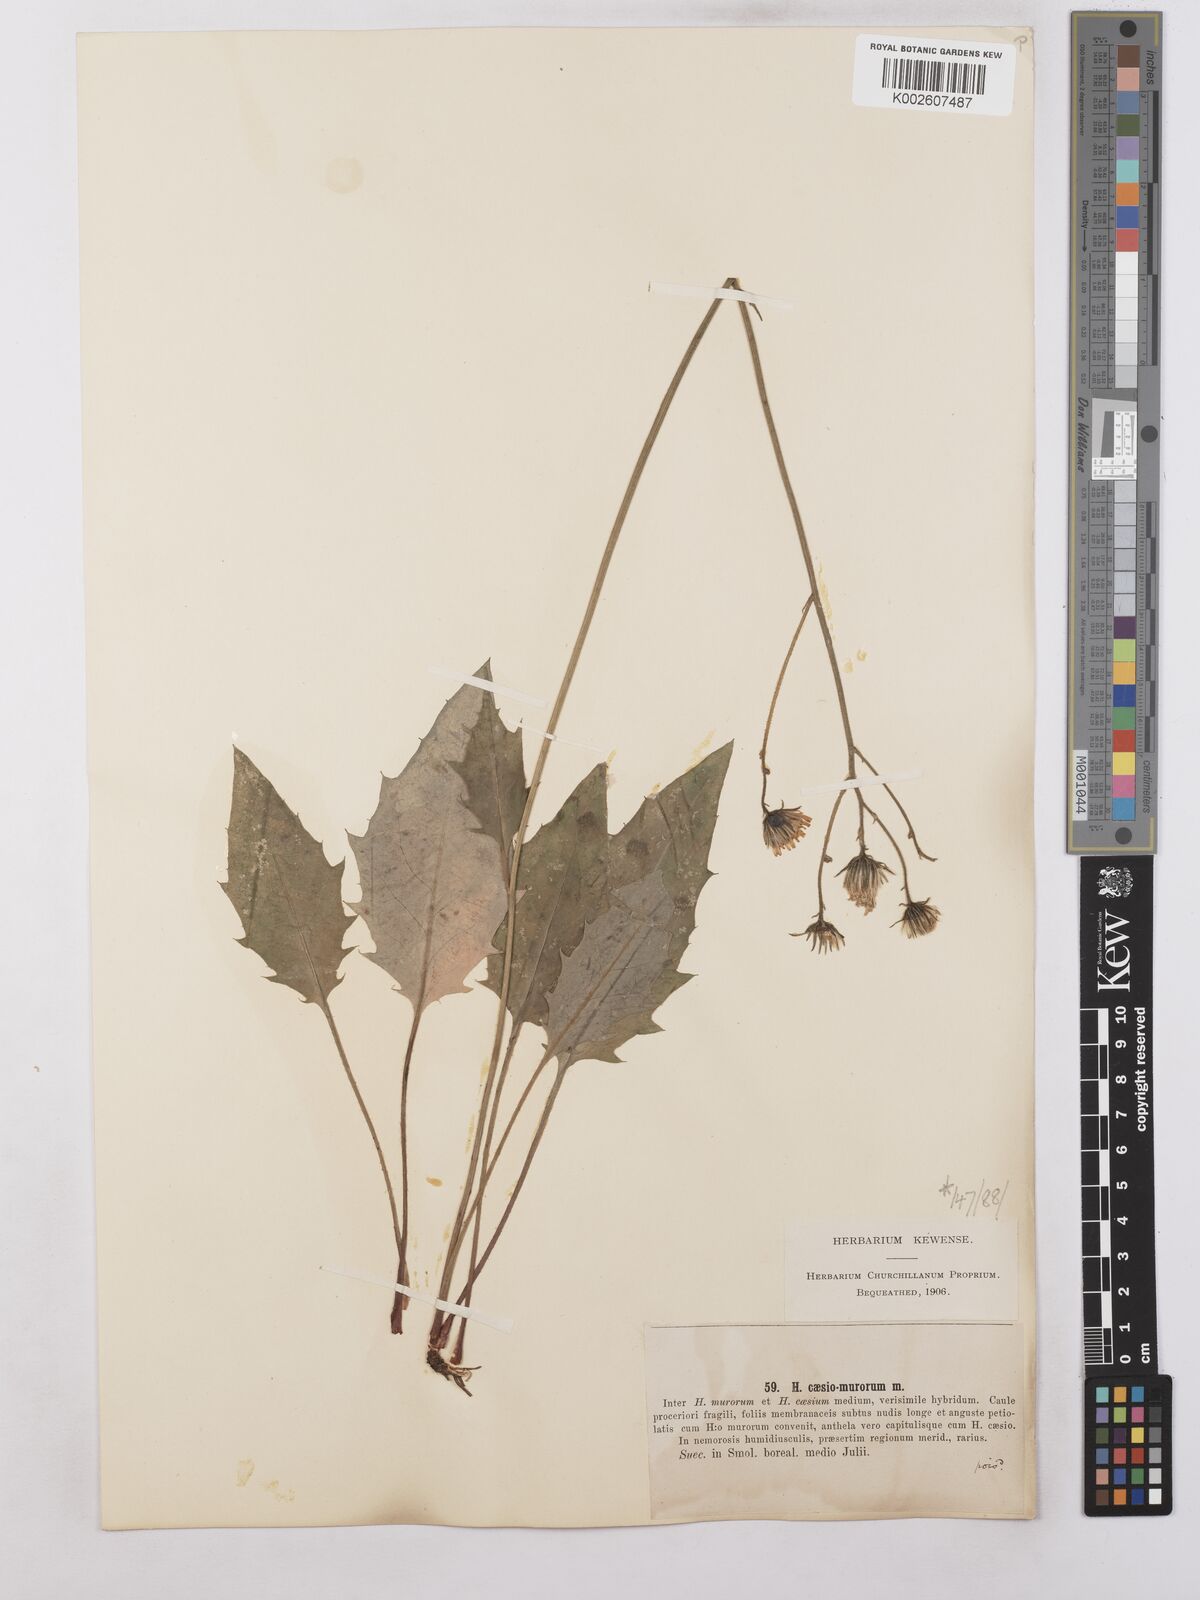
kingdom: Plantae
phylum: Tracheophyta
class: Magnoliopsida
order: Asterales
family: Asteraceae
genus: Hieracium
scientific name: Hieracium caesium
